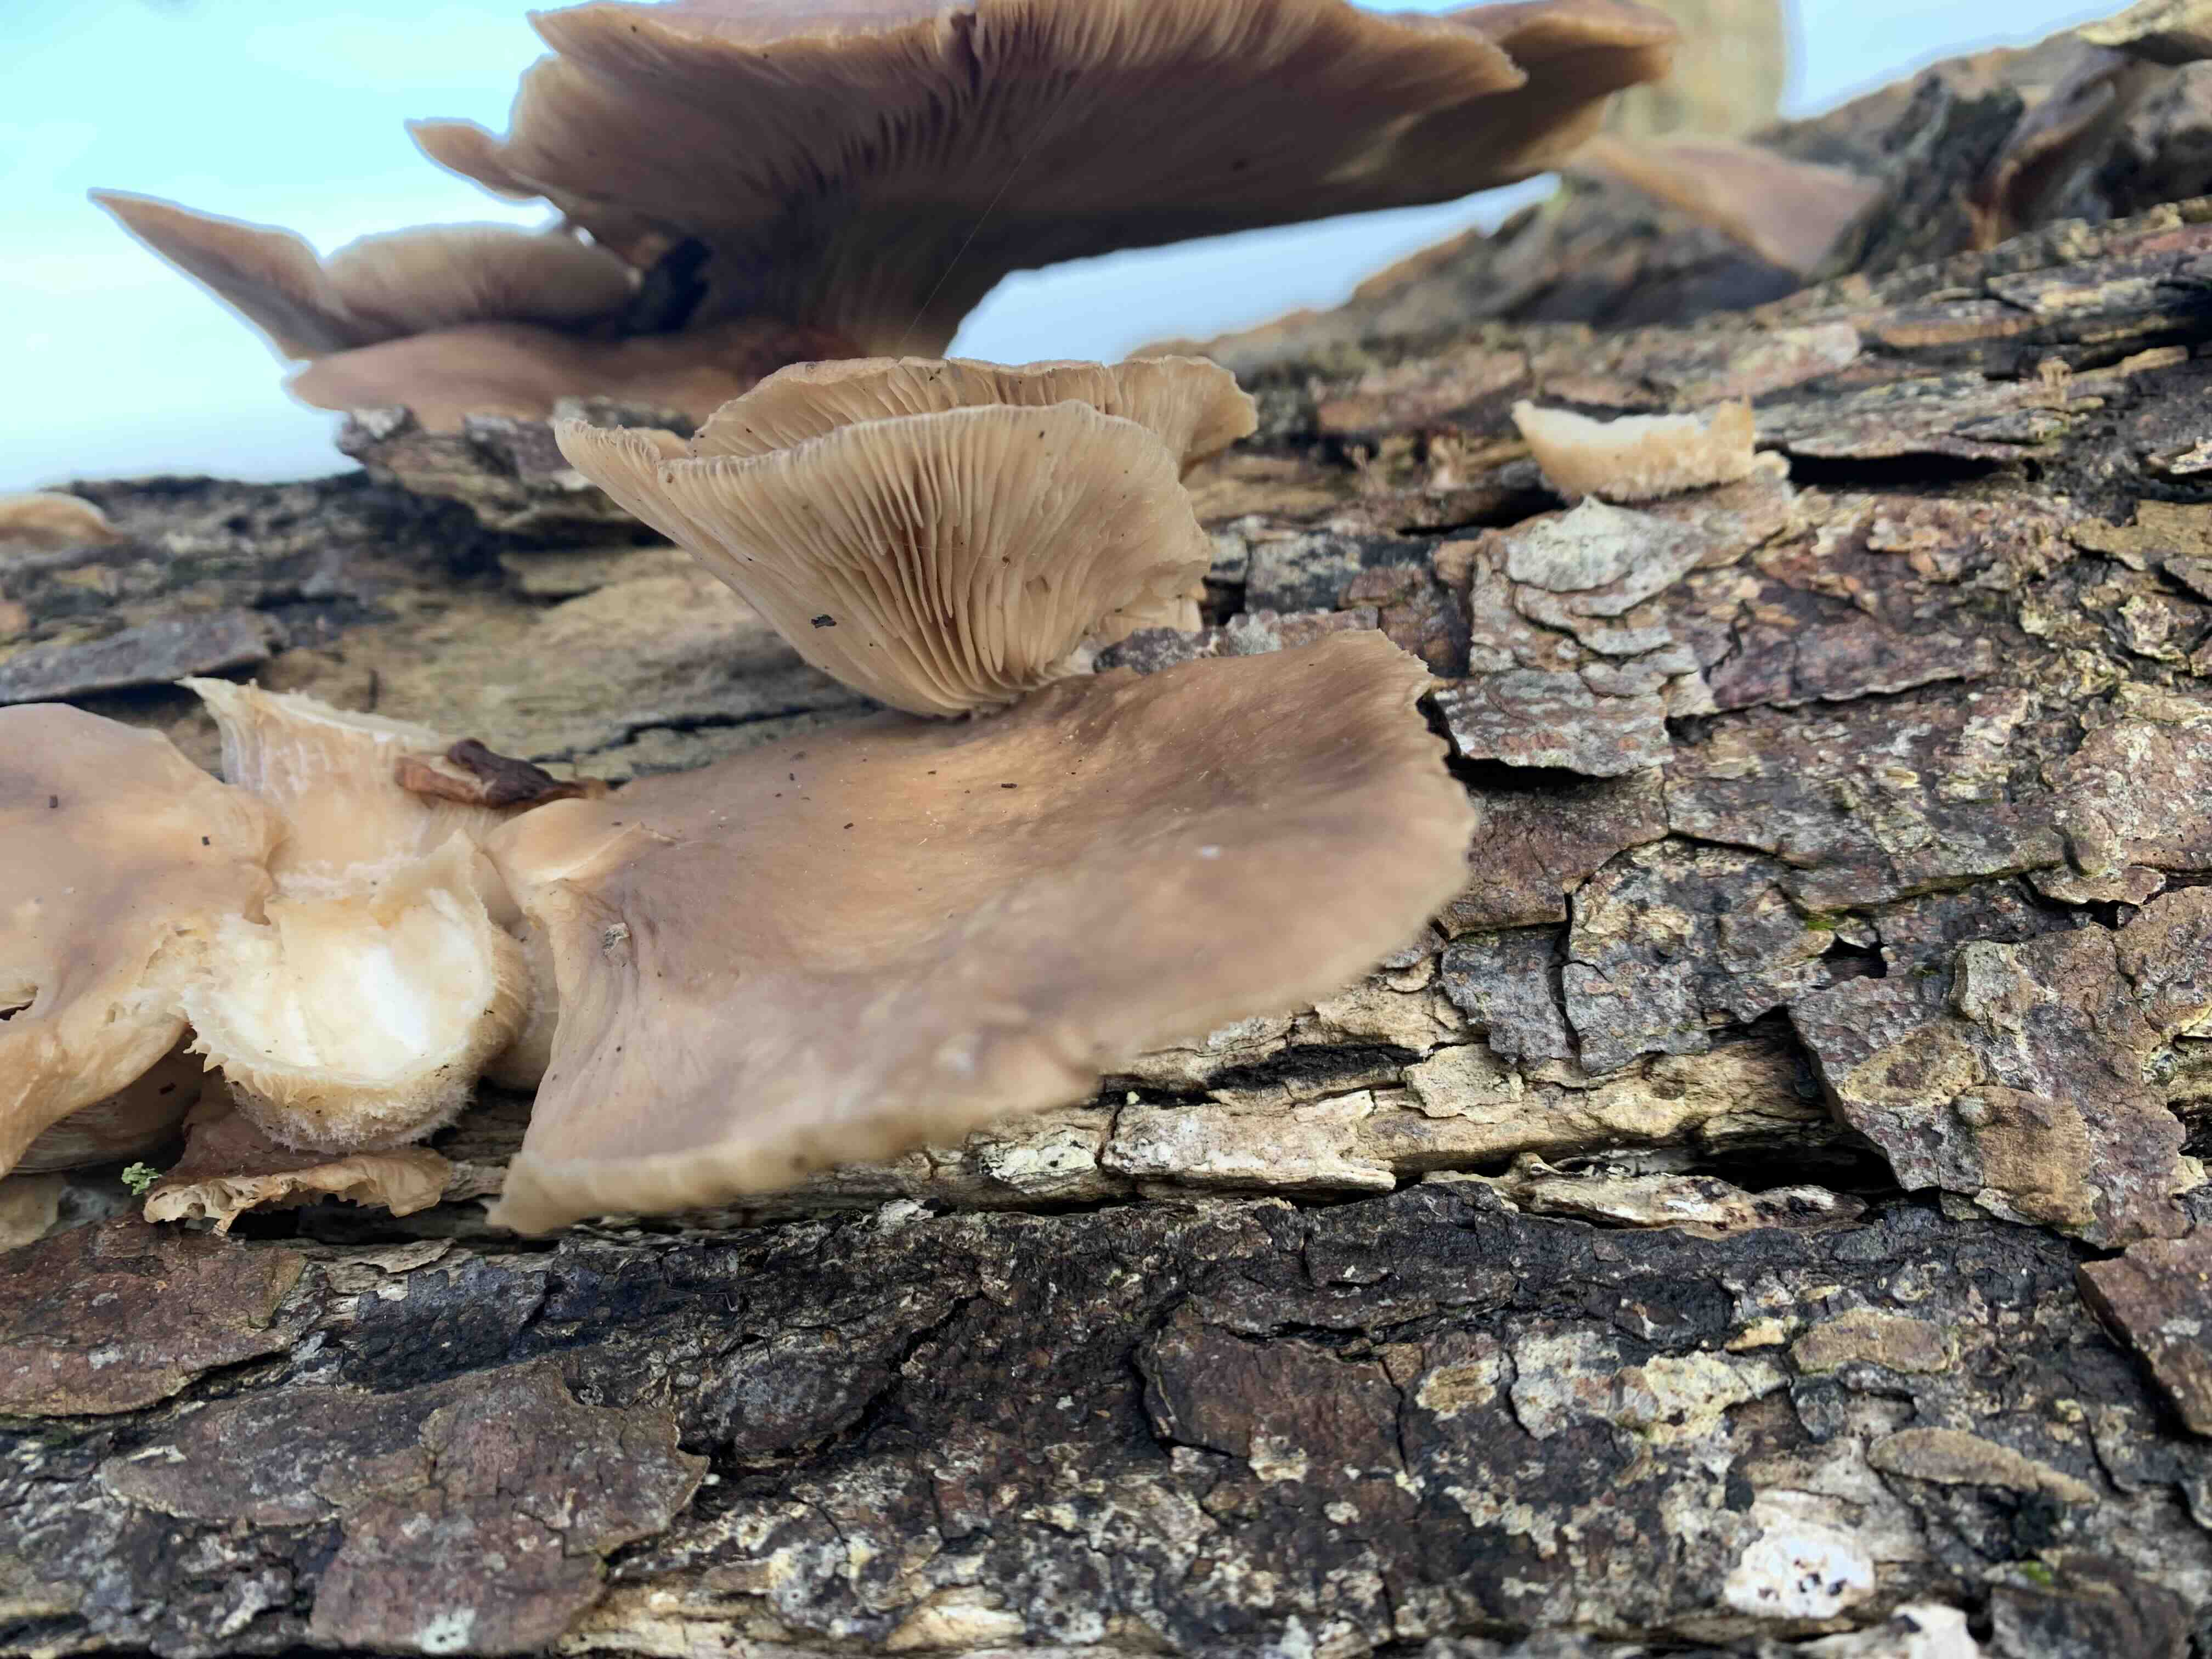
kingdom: Fungi
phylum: Basidiomycota
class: Agaricomycetes
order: Agaricales
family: Pleurotaceae
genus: Pleurotus
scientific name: Pleurotus ostreatus
